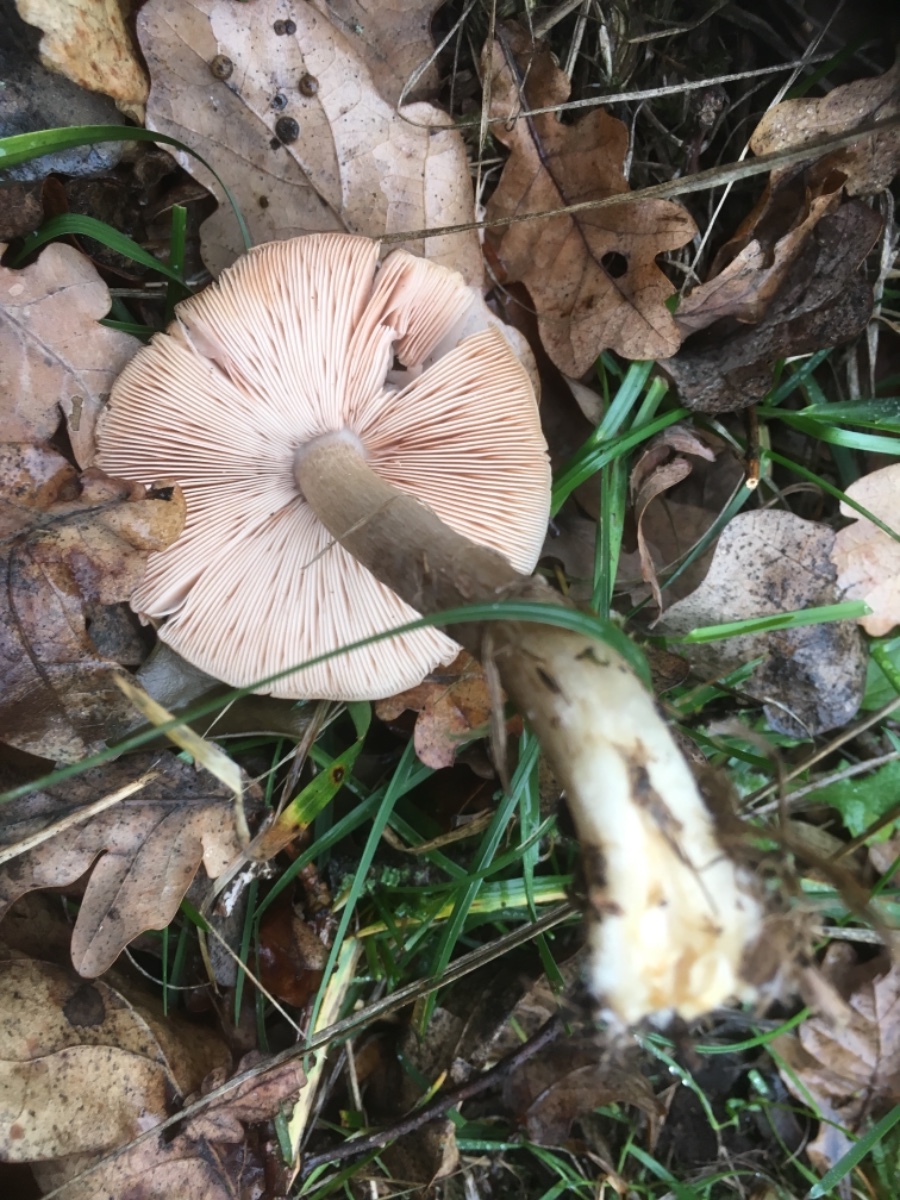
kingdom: Fungi
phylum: Basidiomycota
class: Agaricomycetes
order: Agaricales
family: Pluteaceae
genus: Pluteus
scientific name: Pluteus cervinus
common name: sodfarvet skærmhat
